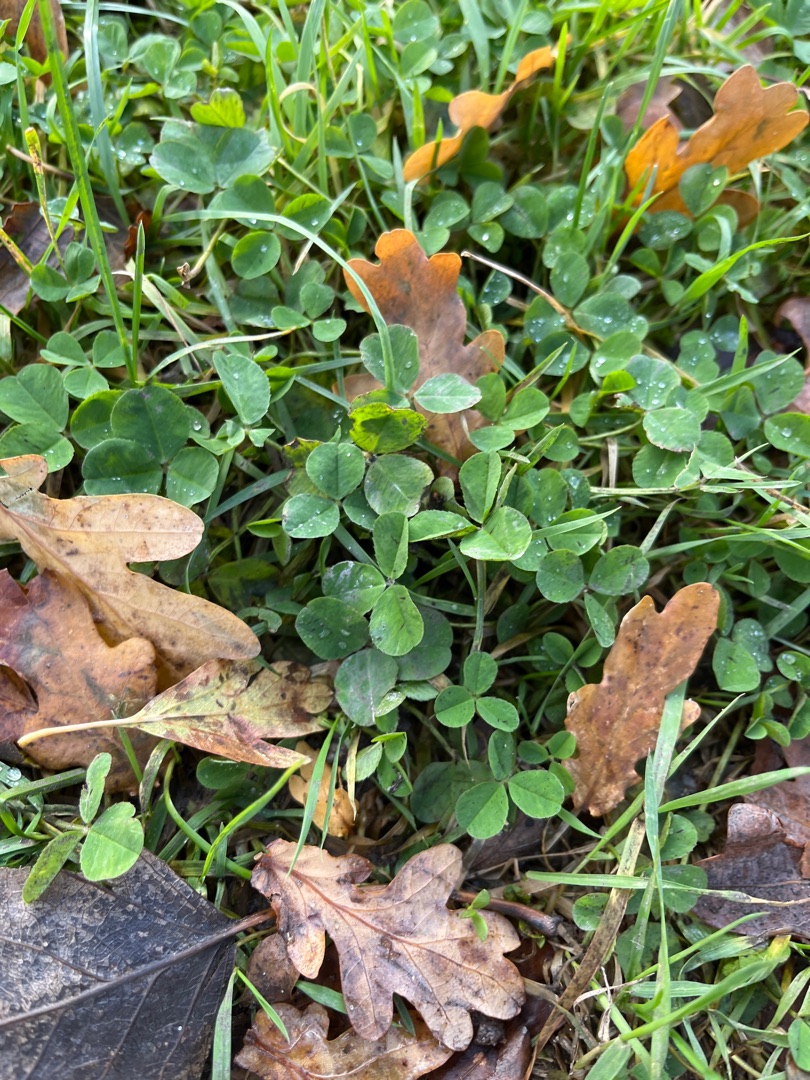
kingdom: Plantae
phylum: Tracheophyta
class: Magnoliopsida
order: Fabales
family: Fabaceae
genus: Trifolium
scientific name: Trifolium repens
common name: Hvid-kløver
